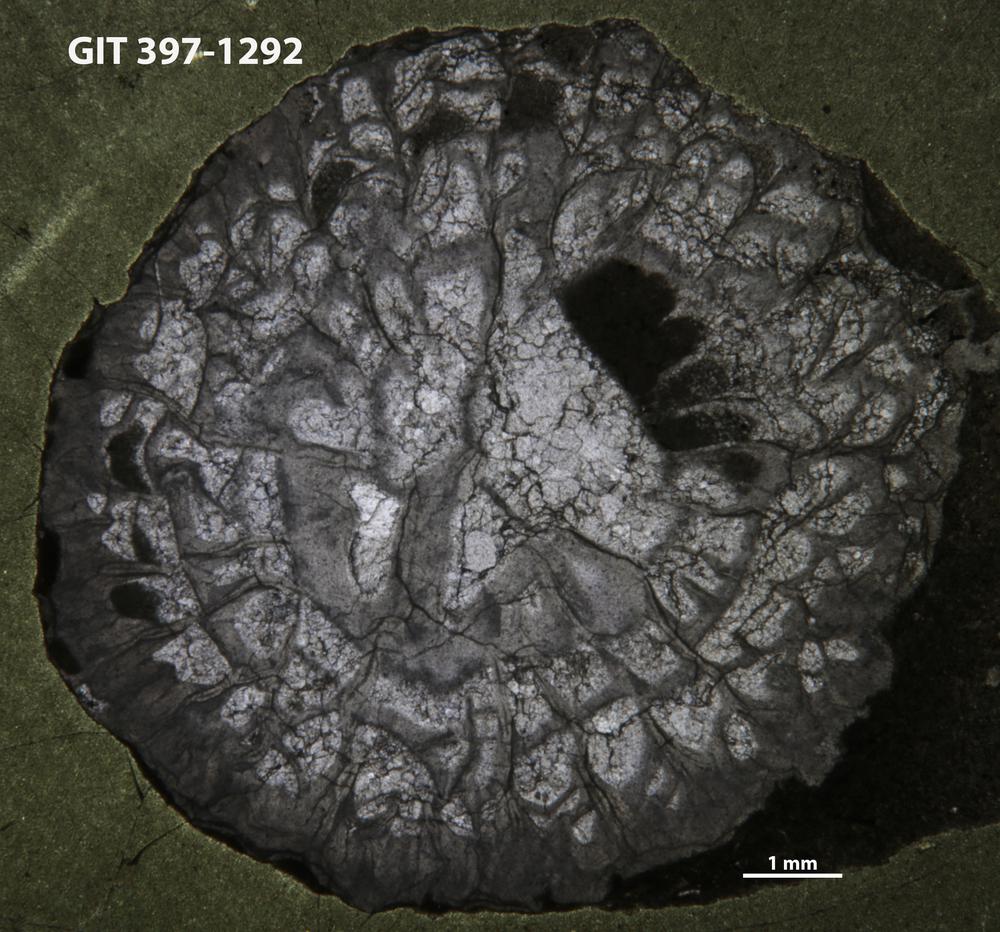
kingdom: Animalia
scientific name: Animalia
